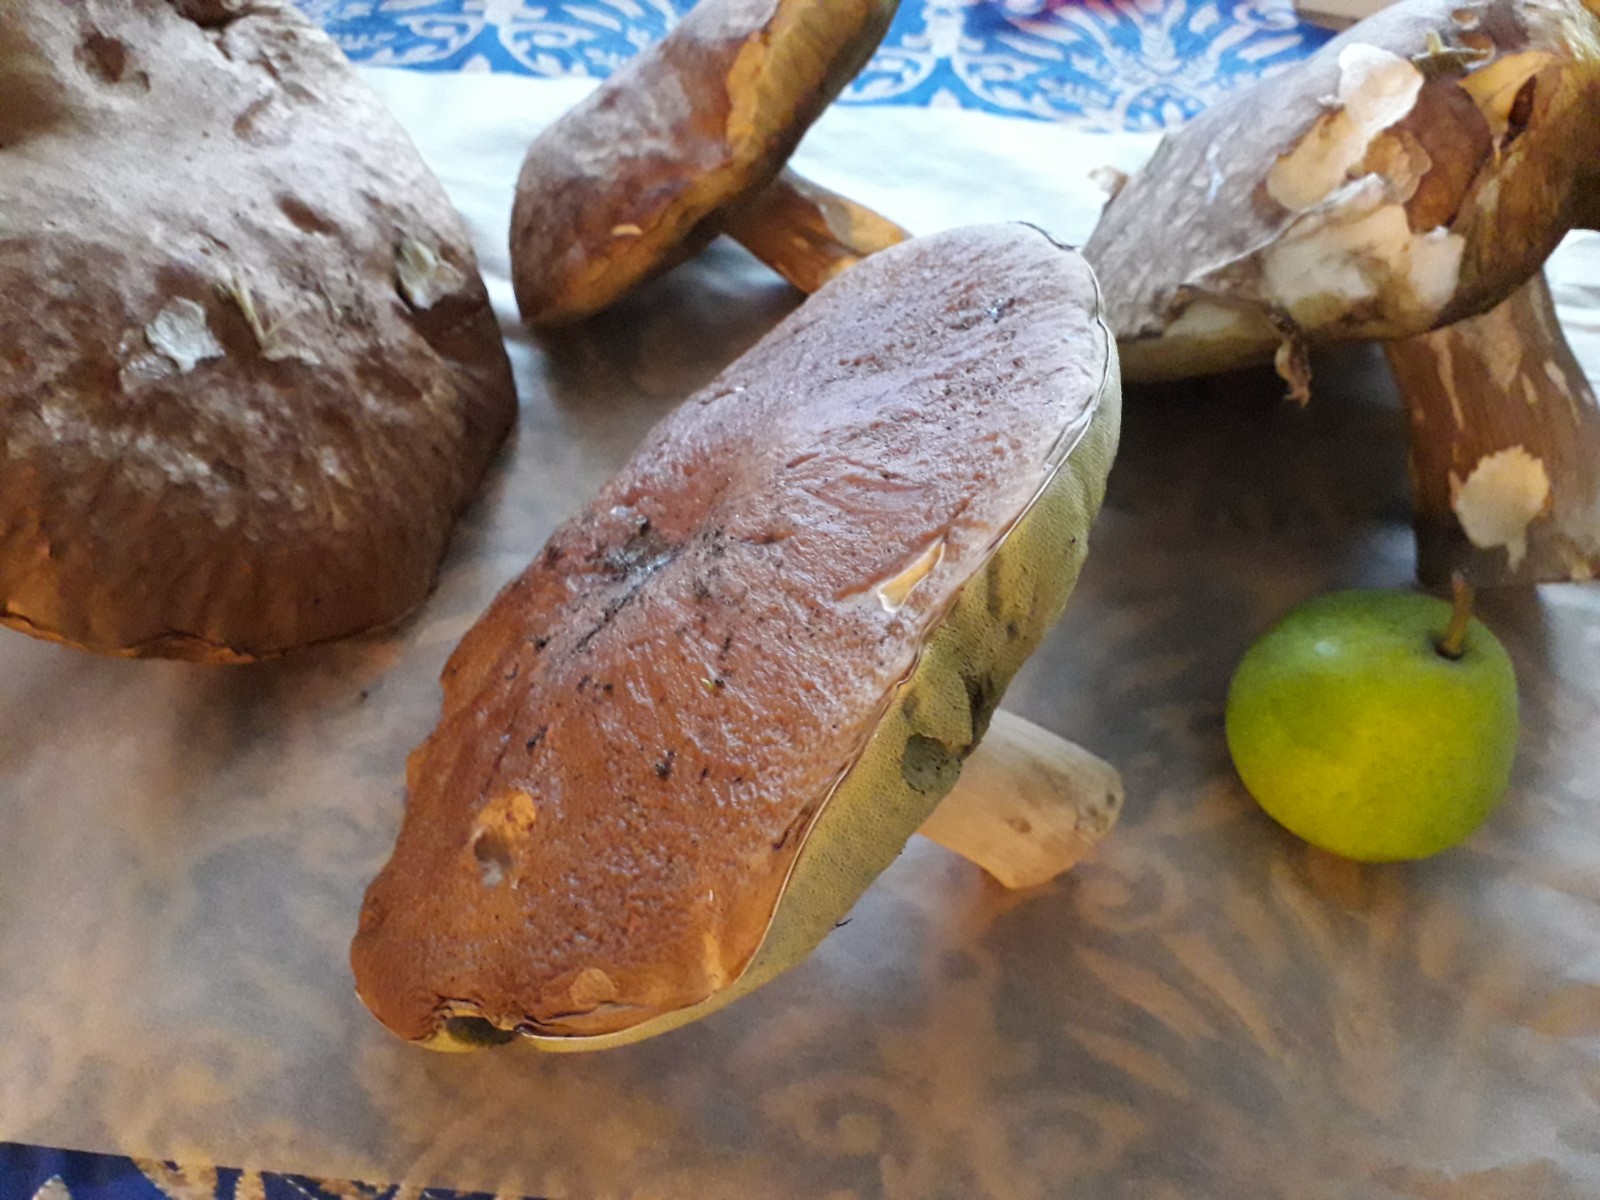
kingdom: Fungi
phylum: Basidiomycota
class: Agaricomycetes
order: Boletales
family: Boletaceae
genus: Boletus
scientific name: Boletus edulis
